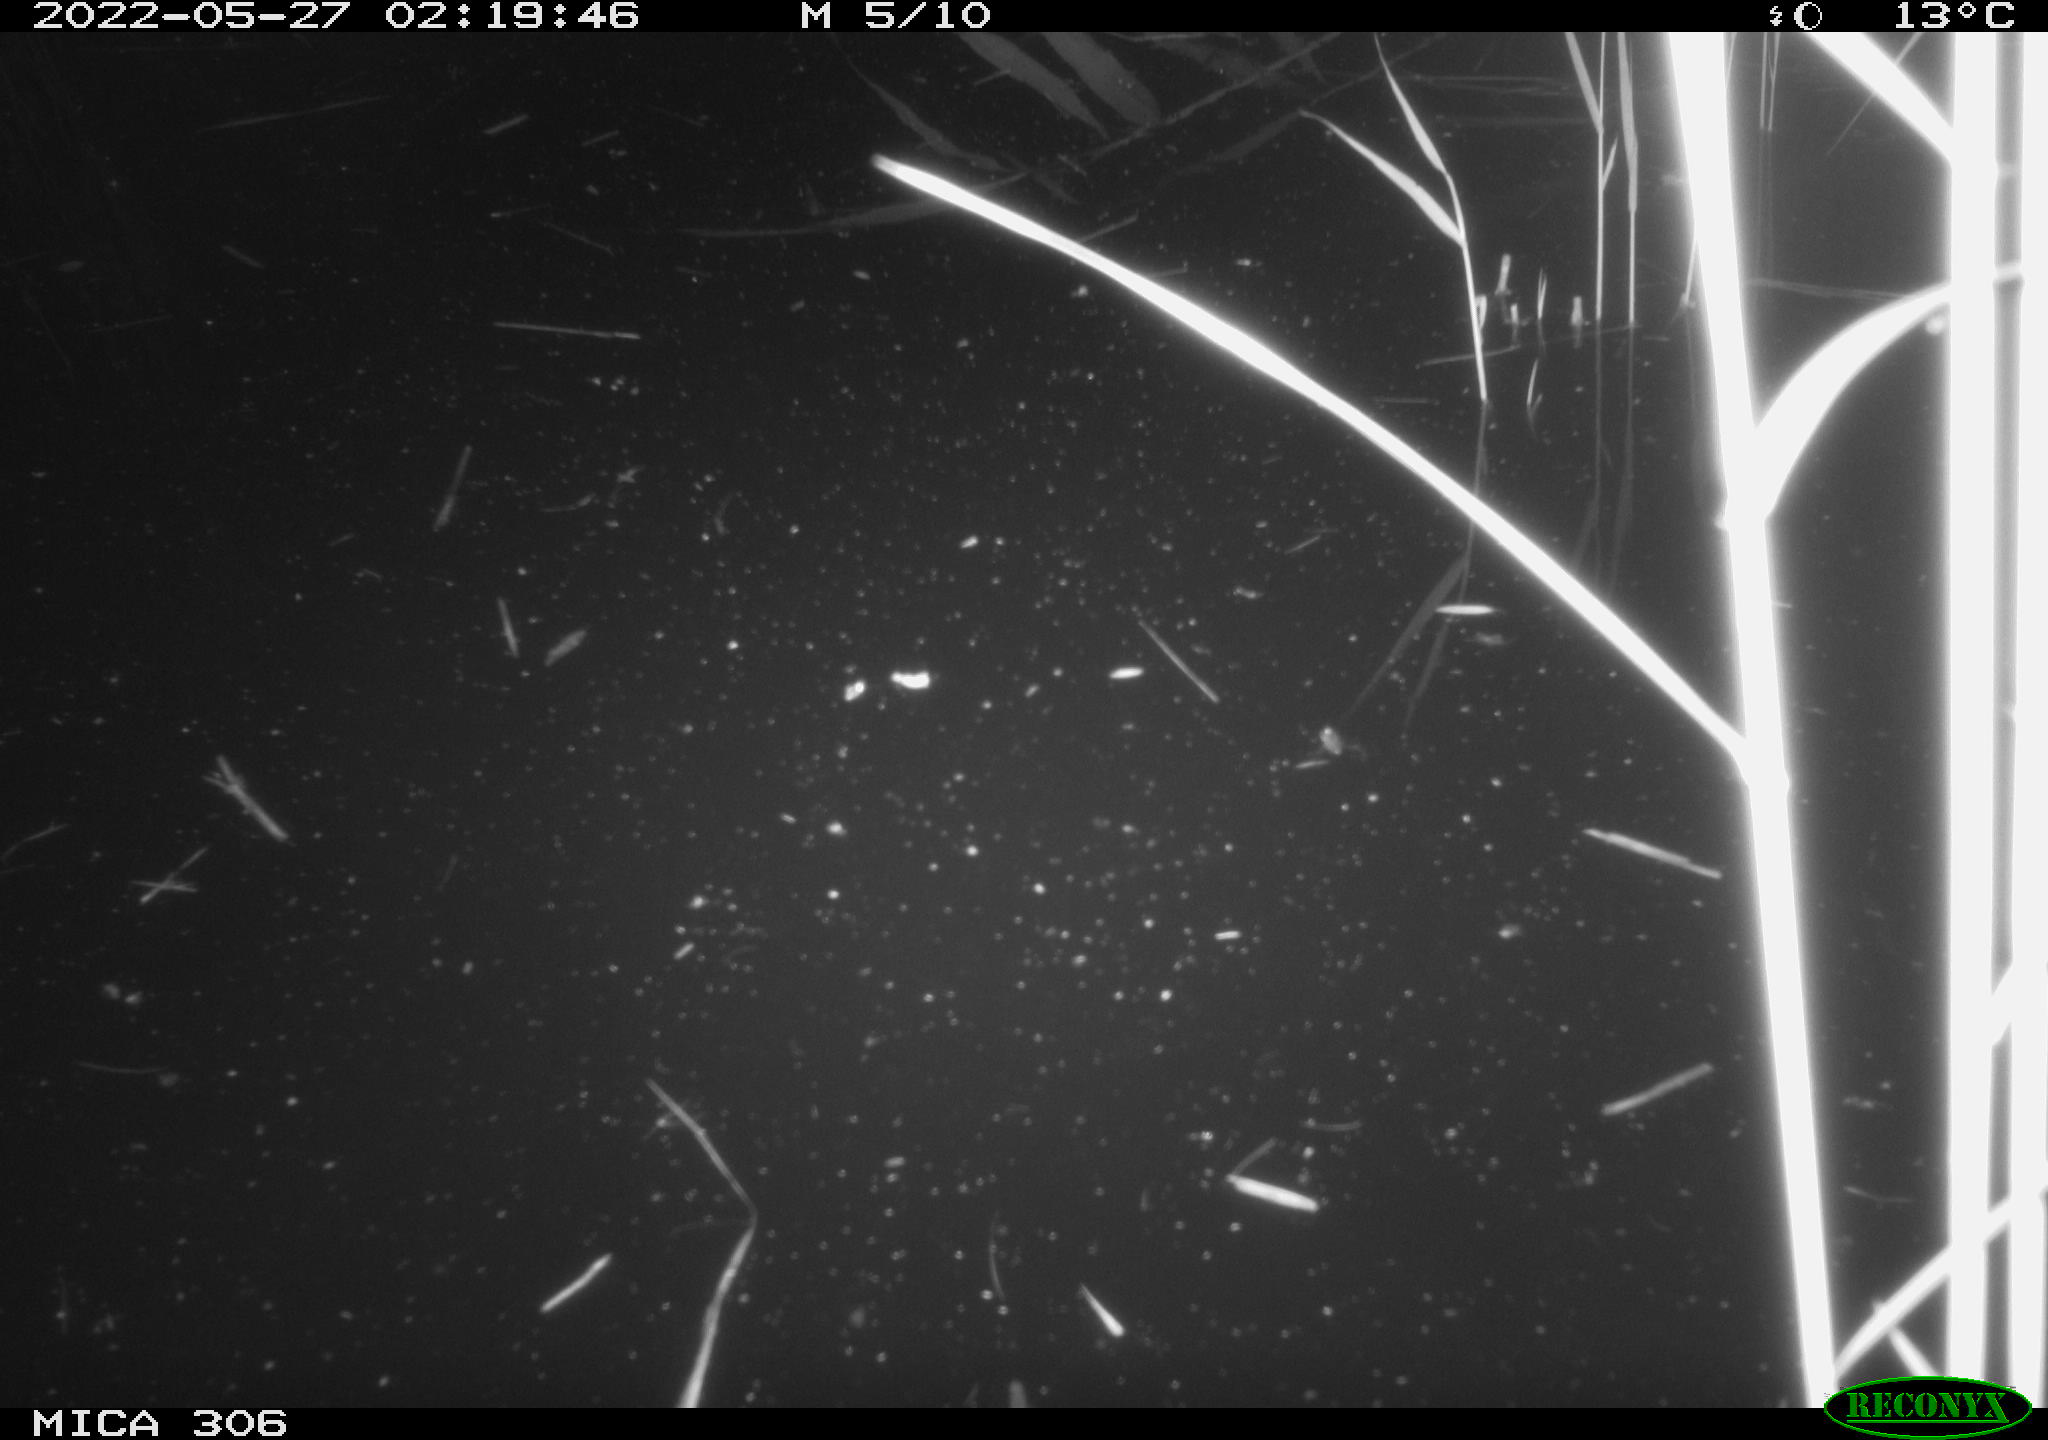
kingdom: Animalia
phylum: Chordata
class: Mammalia
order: Rodentia
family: Muridae
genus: Rattus
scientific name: Rattus norvegicus
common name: Brown rat
